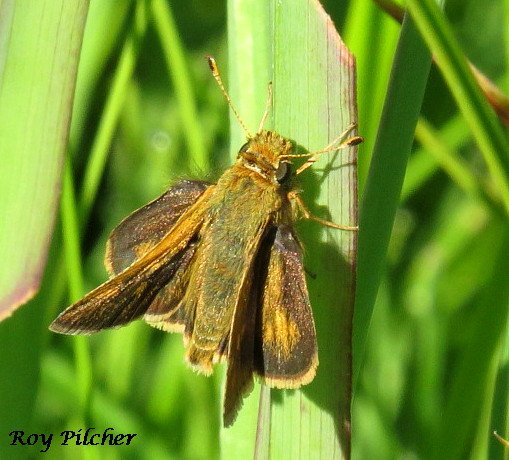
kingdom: Animalia
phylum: Arthropoda
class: Insecta
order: Lepidoptera
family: Hesperiidae
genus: Polites
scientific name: Polites coras
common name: Peck's Skipper
